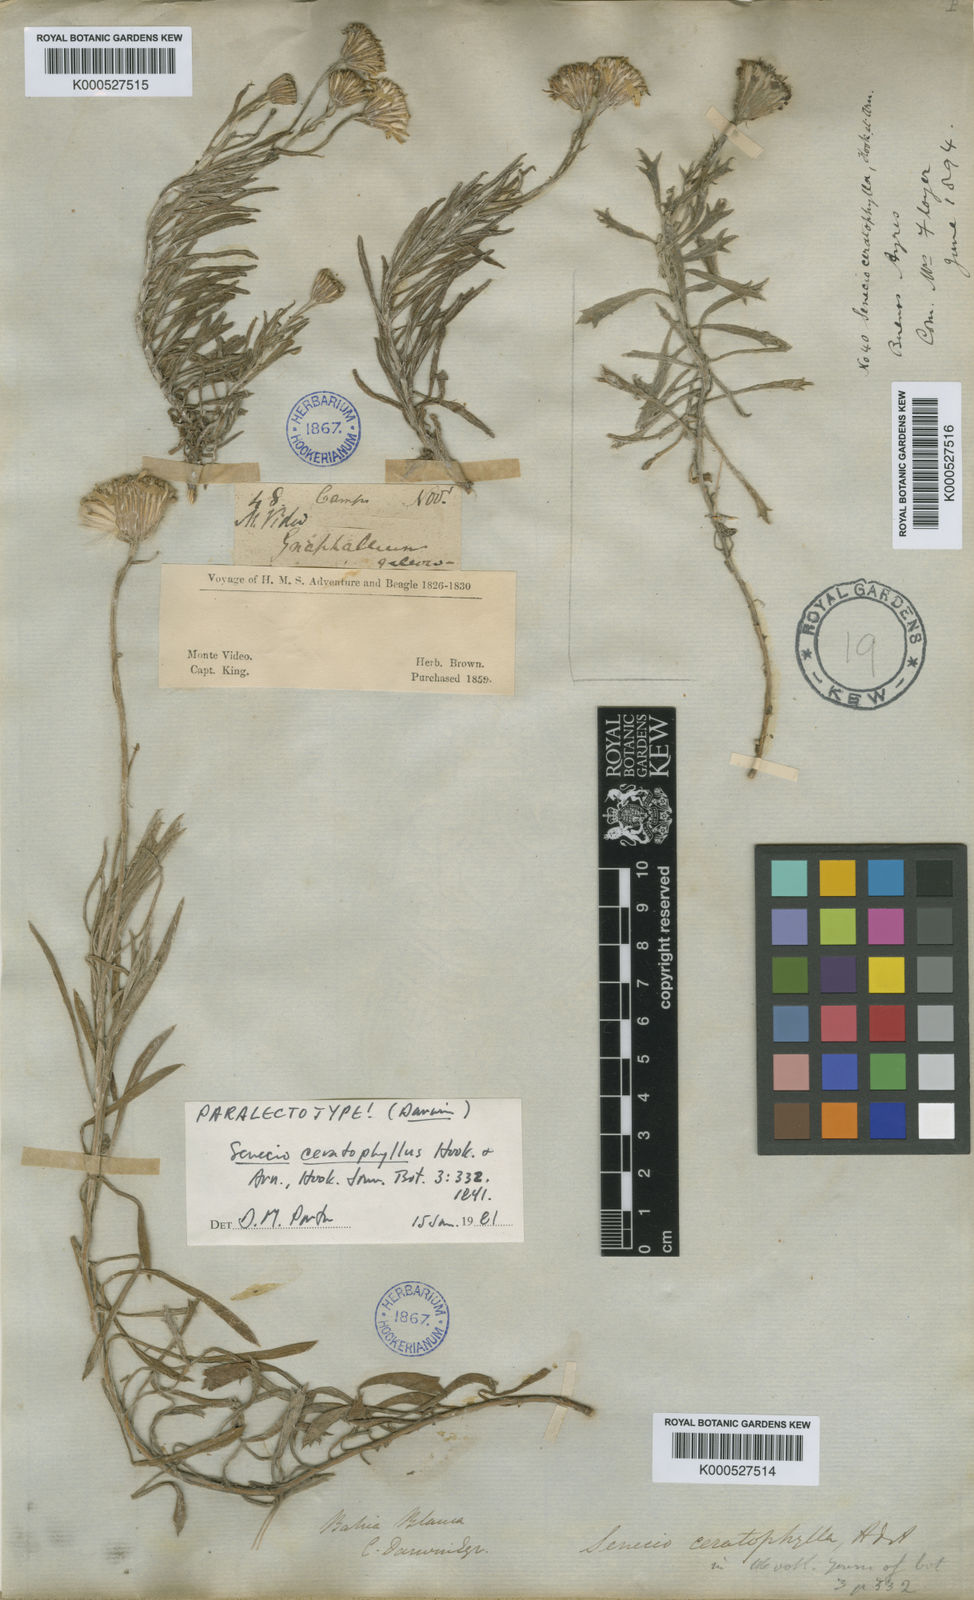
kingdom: Plantae
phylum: Tracheophyta
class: Magnoliopsida
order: Asterales
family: Asteraceae
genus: Senecio
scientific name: Senecio ceratophylloides
